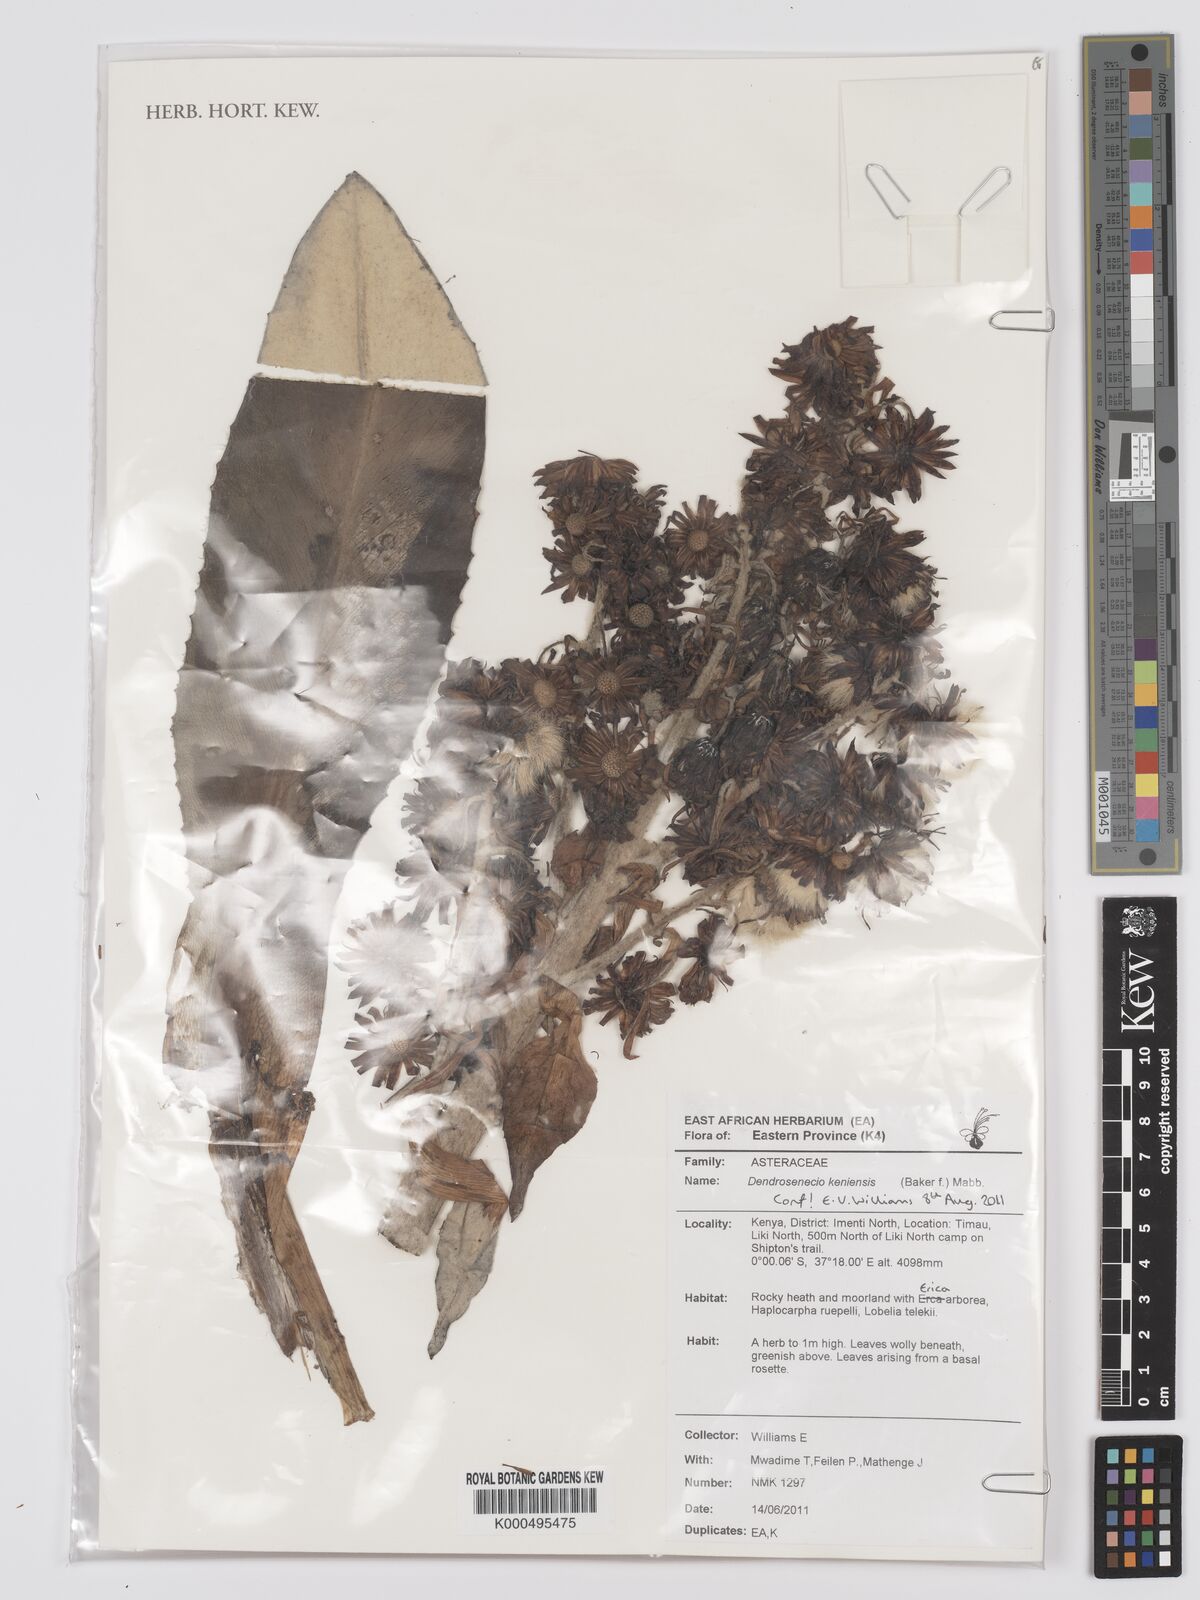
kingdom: Plantae
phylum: Tracheophyta
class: Magnoliopsida
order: Asterales
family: Asteraceae
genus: Dendrosenecio
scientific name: Dendrosenecio keniensis
